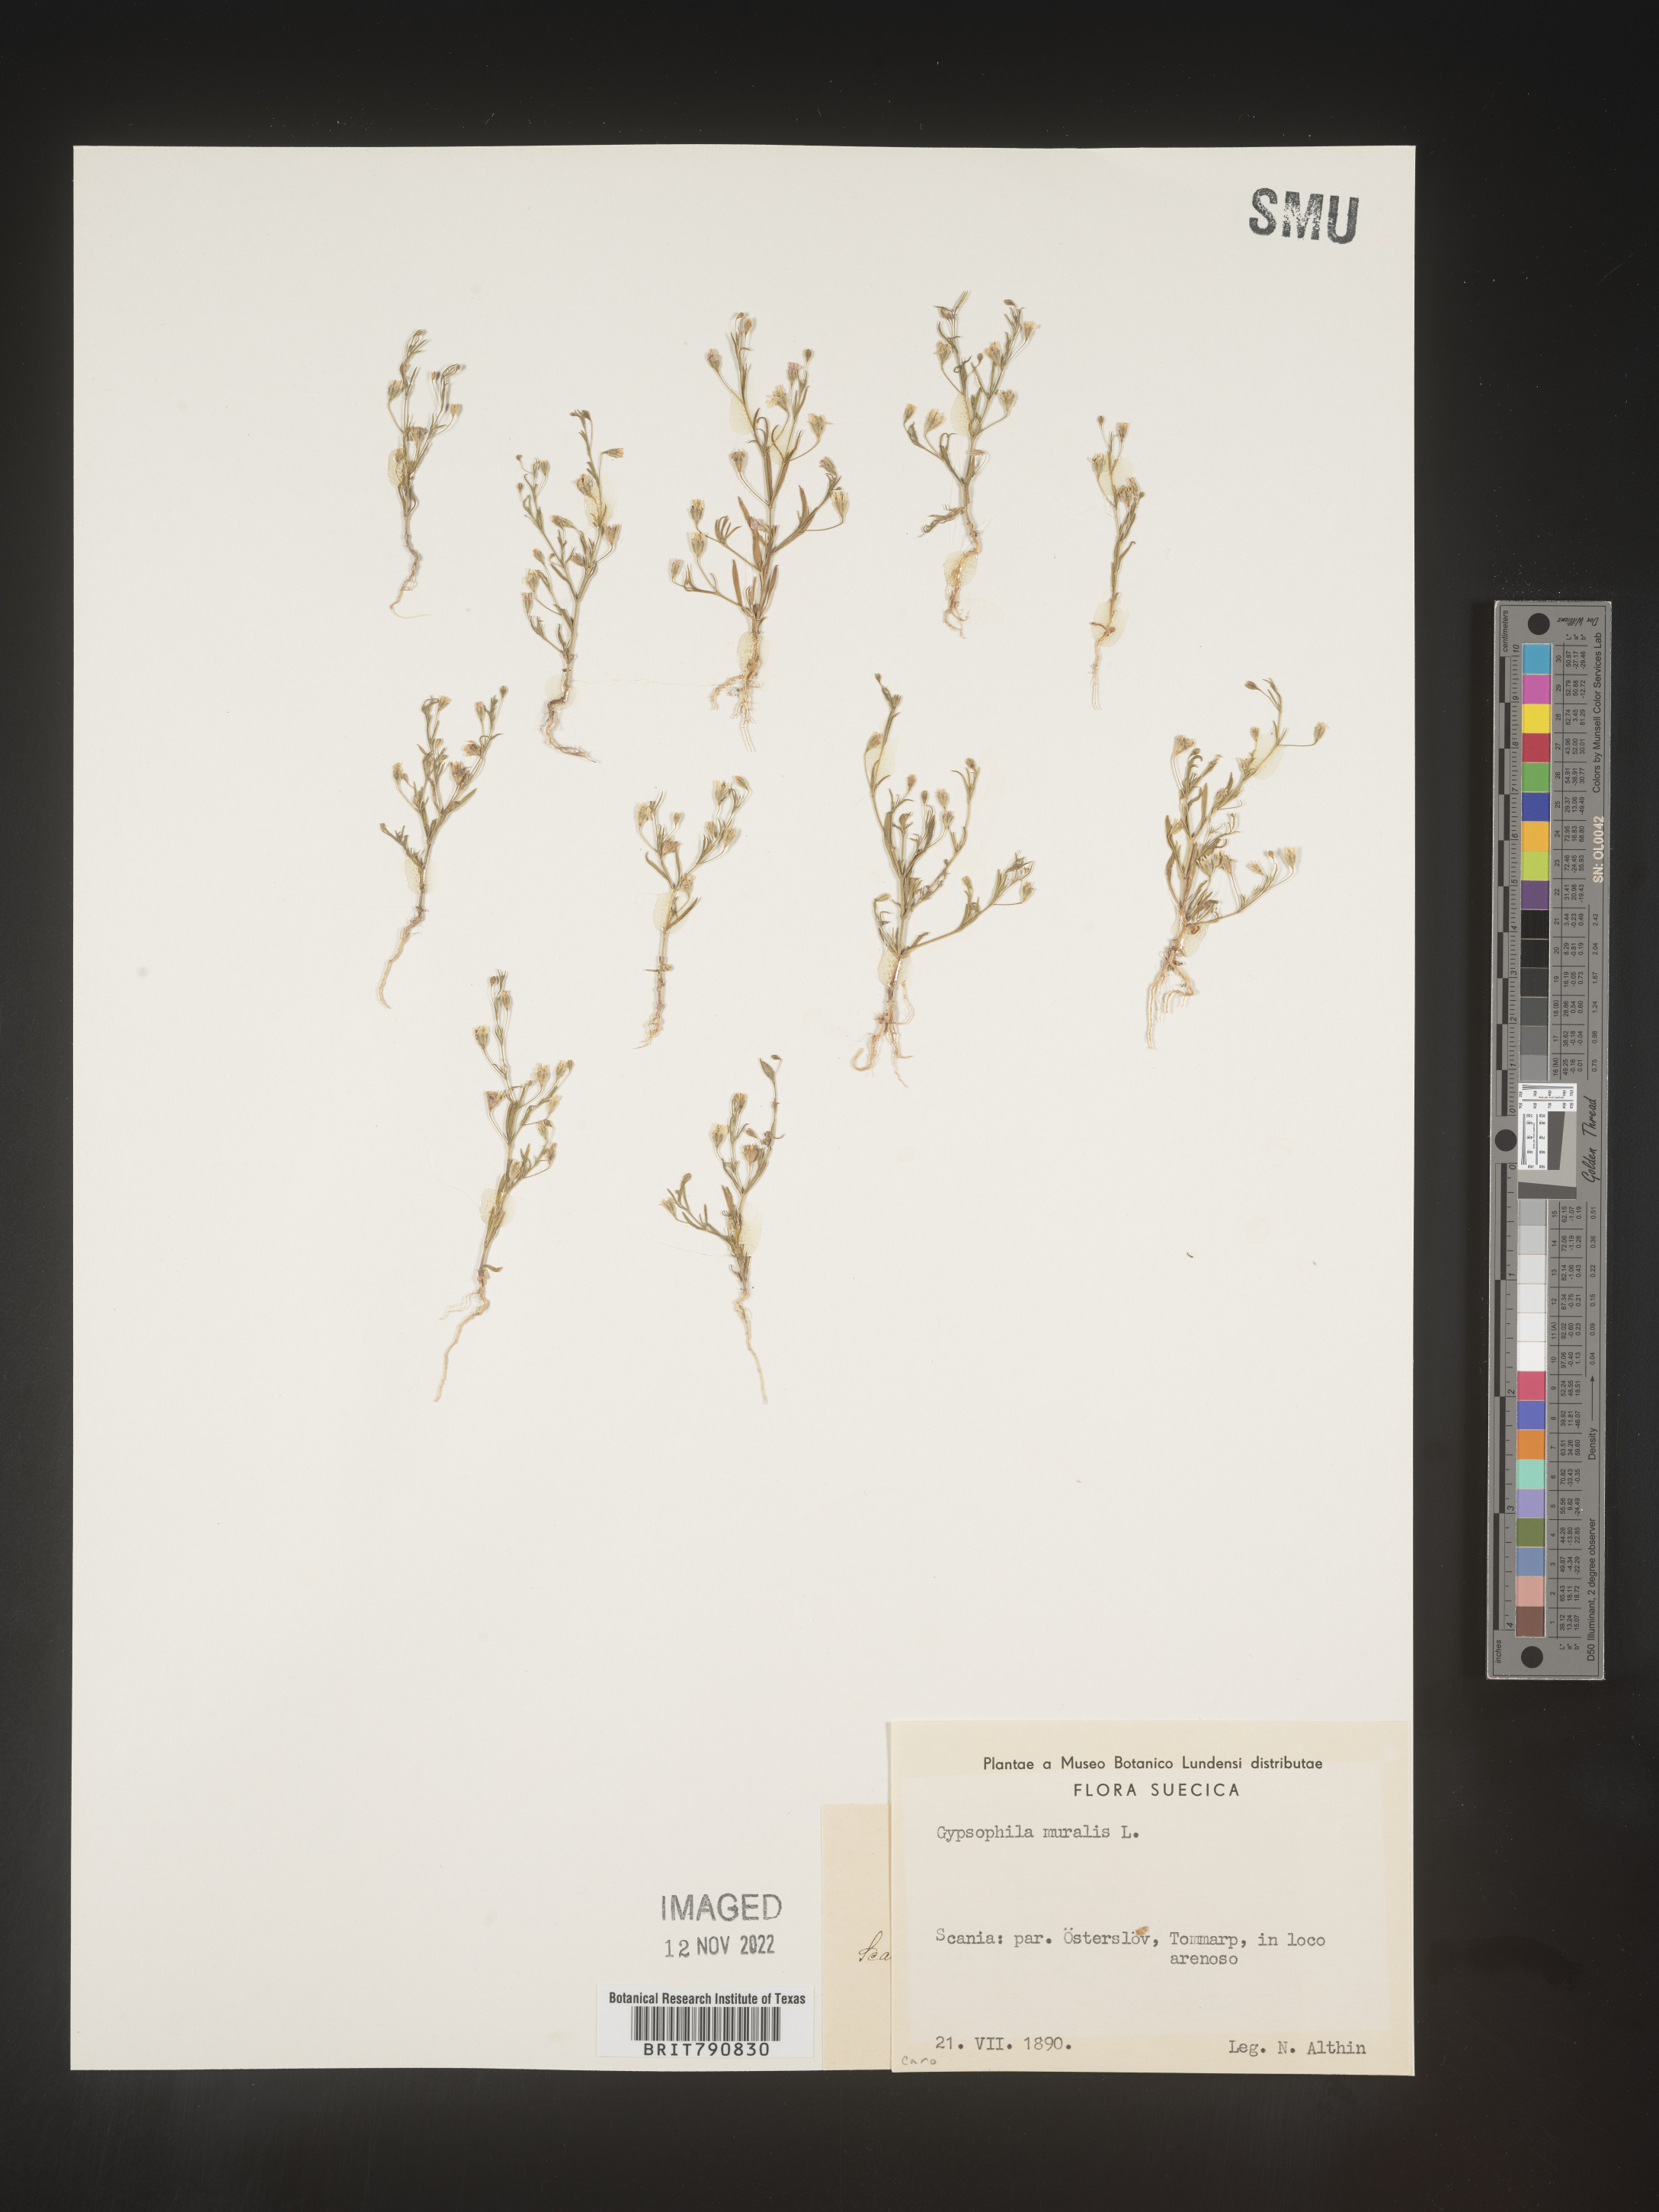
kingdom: Plantae
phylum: Tracheophyta
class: Magnoliopsida
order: Caryophyllales
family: Caryophyllaceae
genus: Gypsophila
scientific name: Gypsophila
